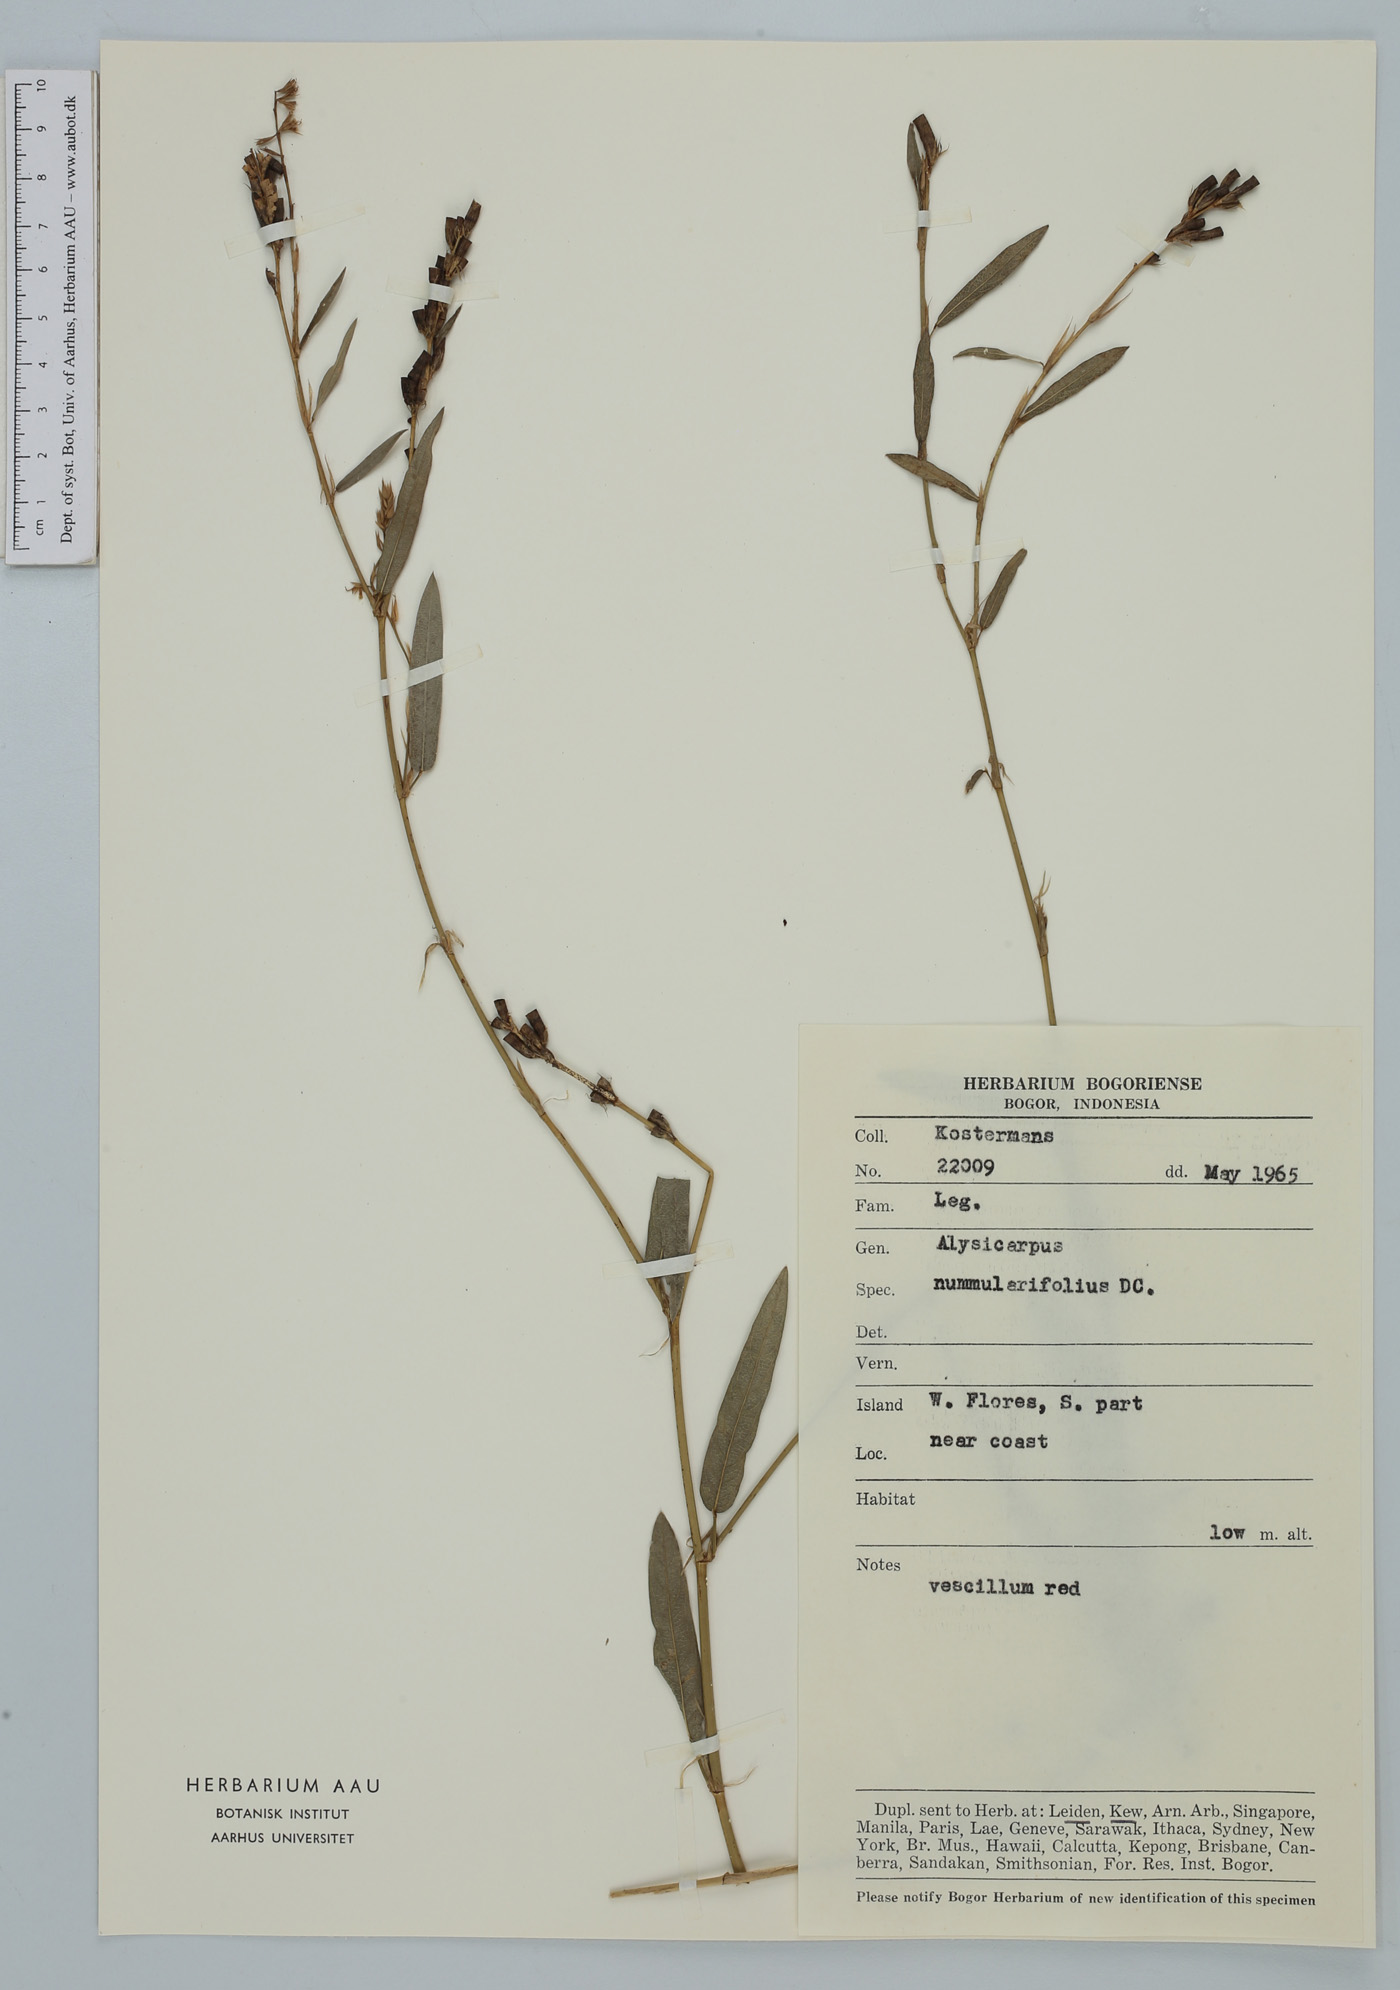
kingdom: Plantae
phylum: Tracheophyta
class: Magnoliopsida
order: Fabales
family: Fabaceae
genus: Alysicarpus
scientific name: Alysicarpus vaginalis
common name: White moneywort
